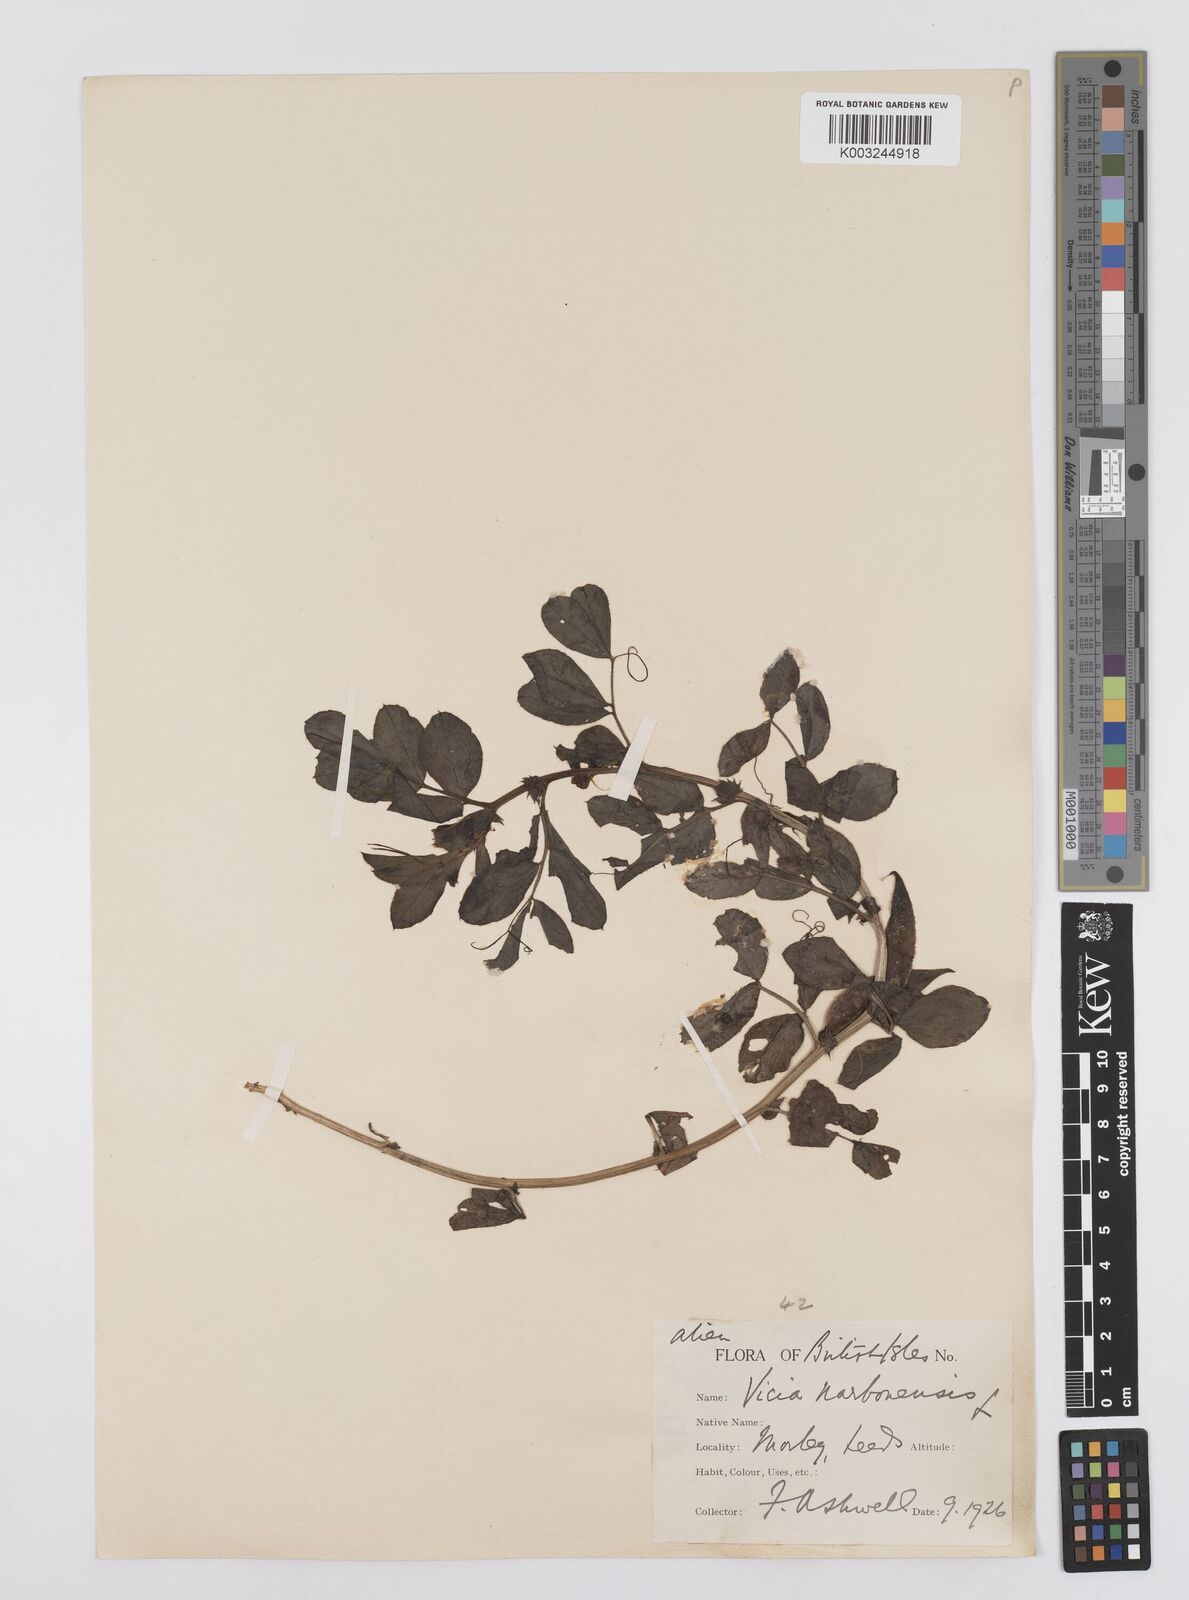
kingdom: Plantae
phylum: Tracheophyta
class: Magnoliopsida
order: Fabales
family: Fabaceae
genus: Vicia
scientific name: Vicia narbonensis
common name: Narbonne vetch
